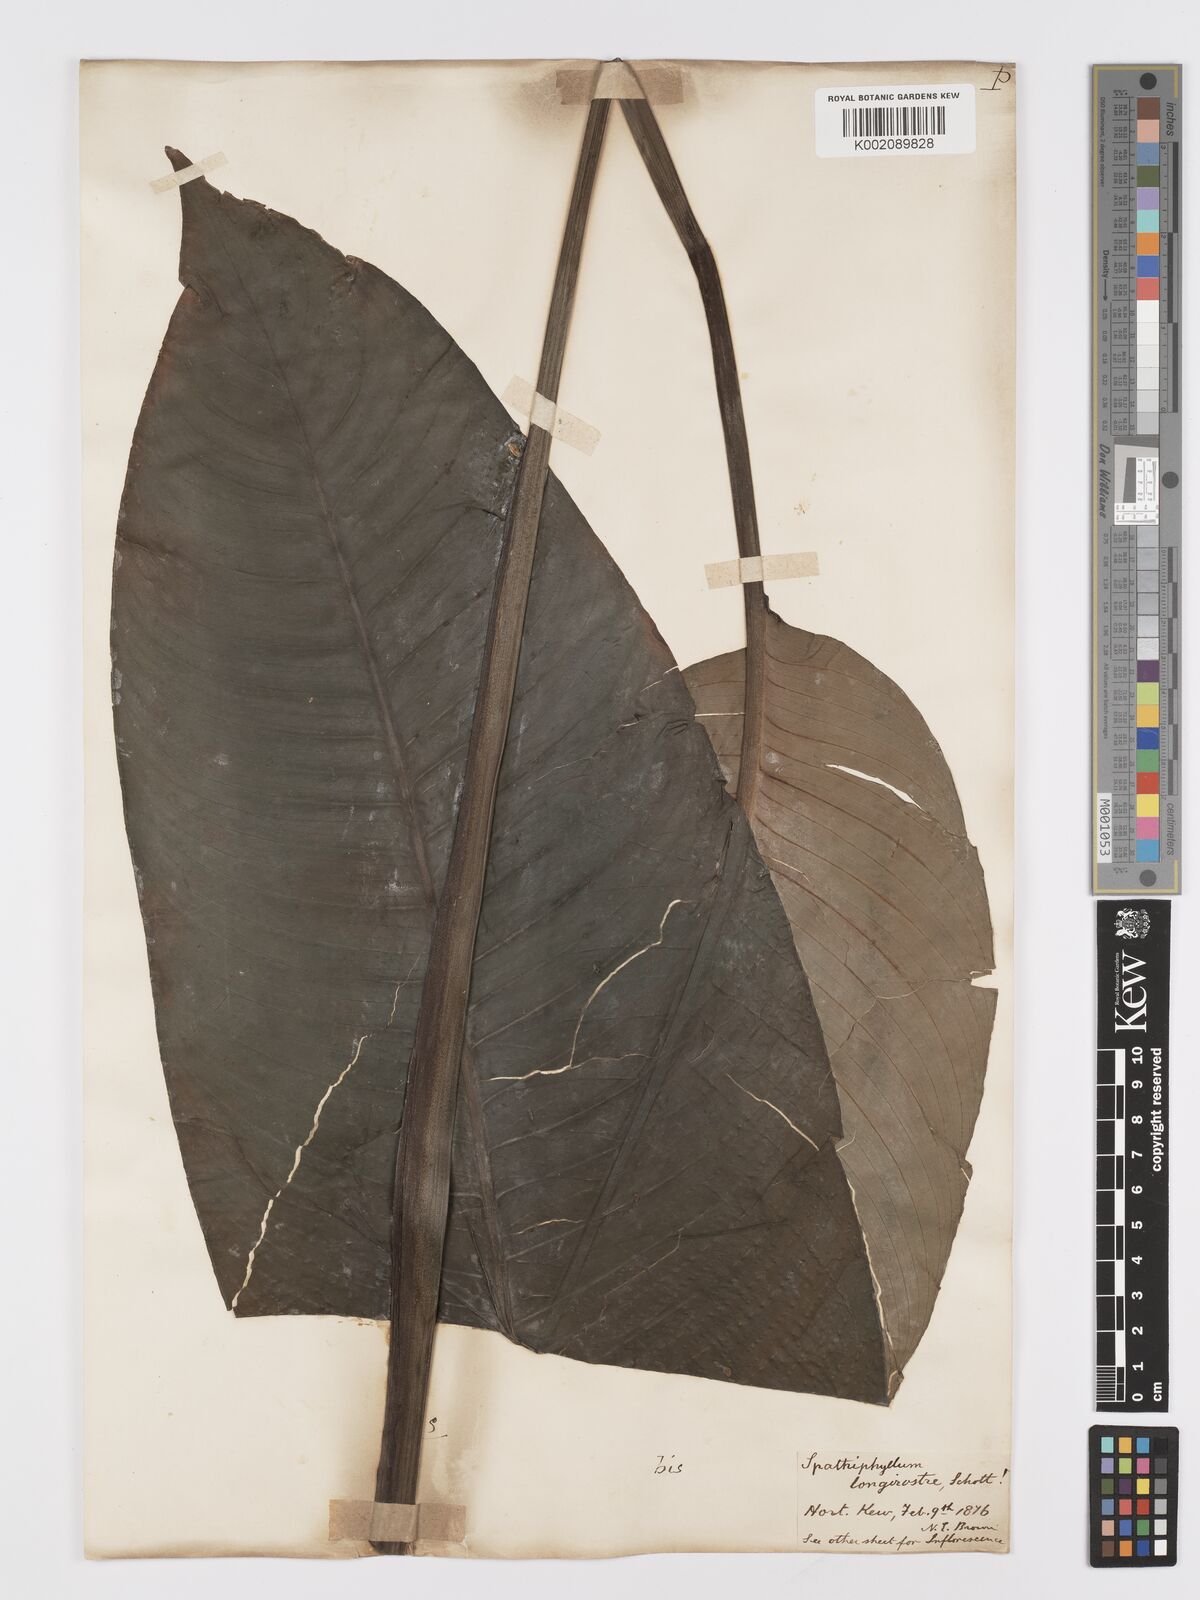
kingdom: Plantae
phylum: Tracheophyta
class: Liliopsida
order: Alismatales
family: Araceae
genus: Spathiphyllum
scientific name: Spathiphyllum cochlearispathum
